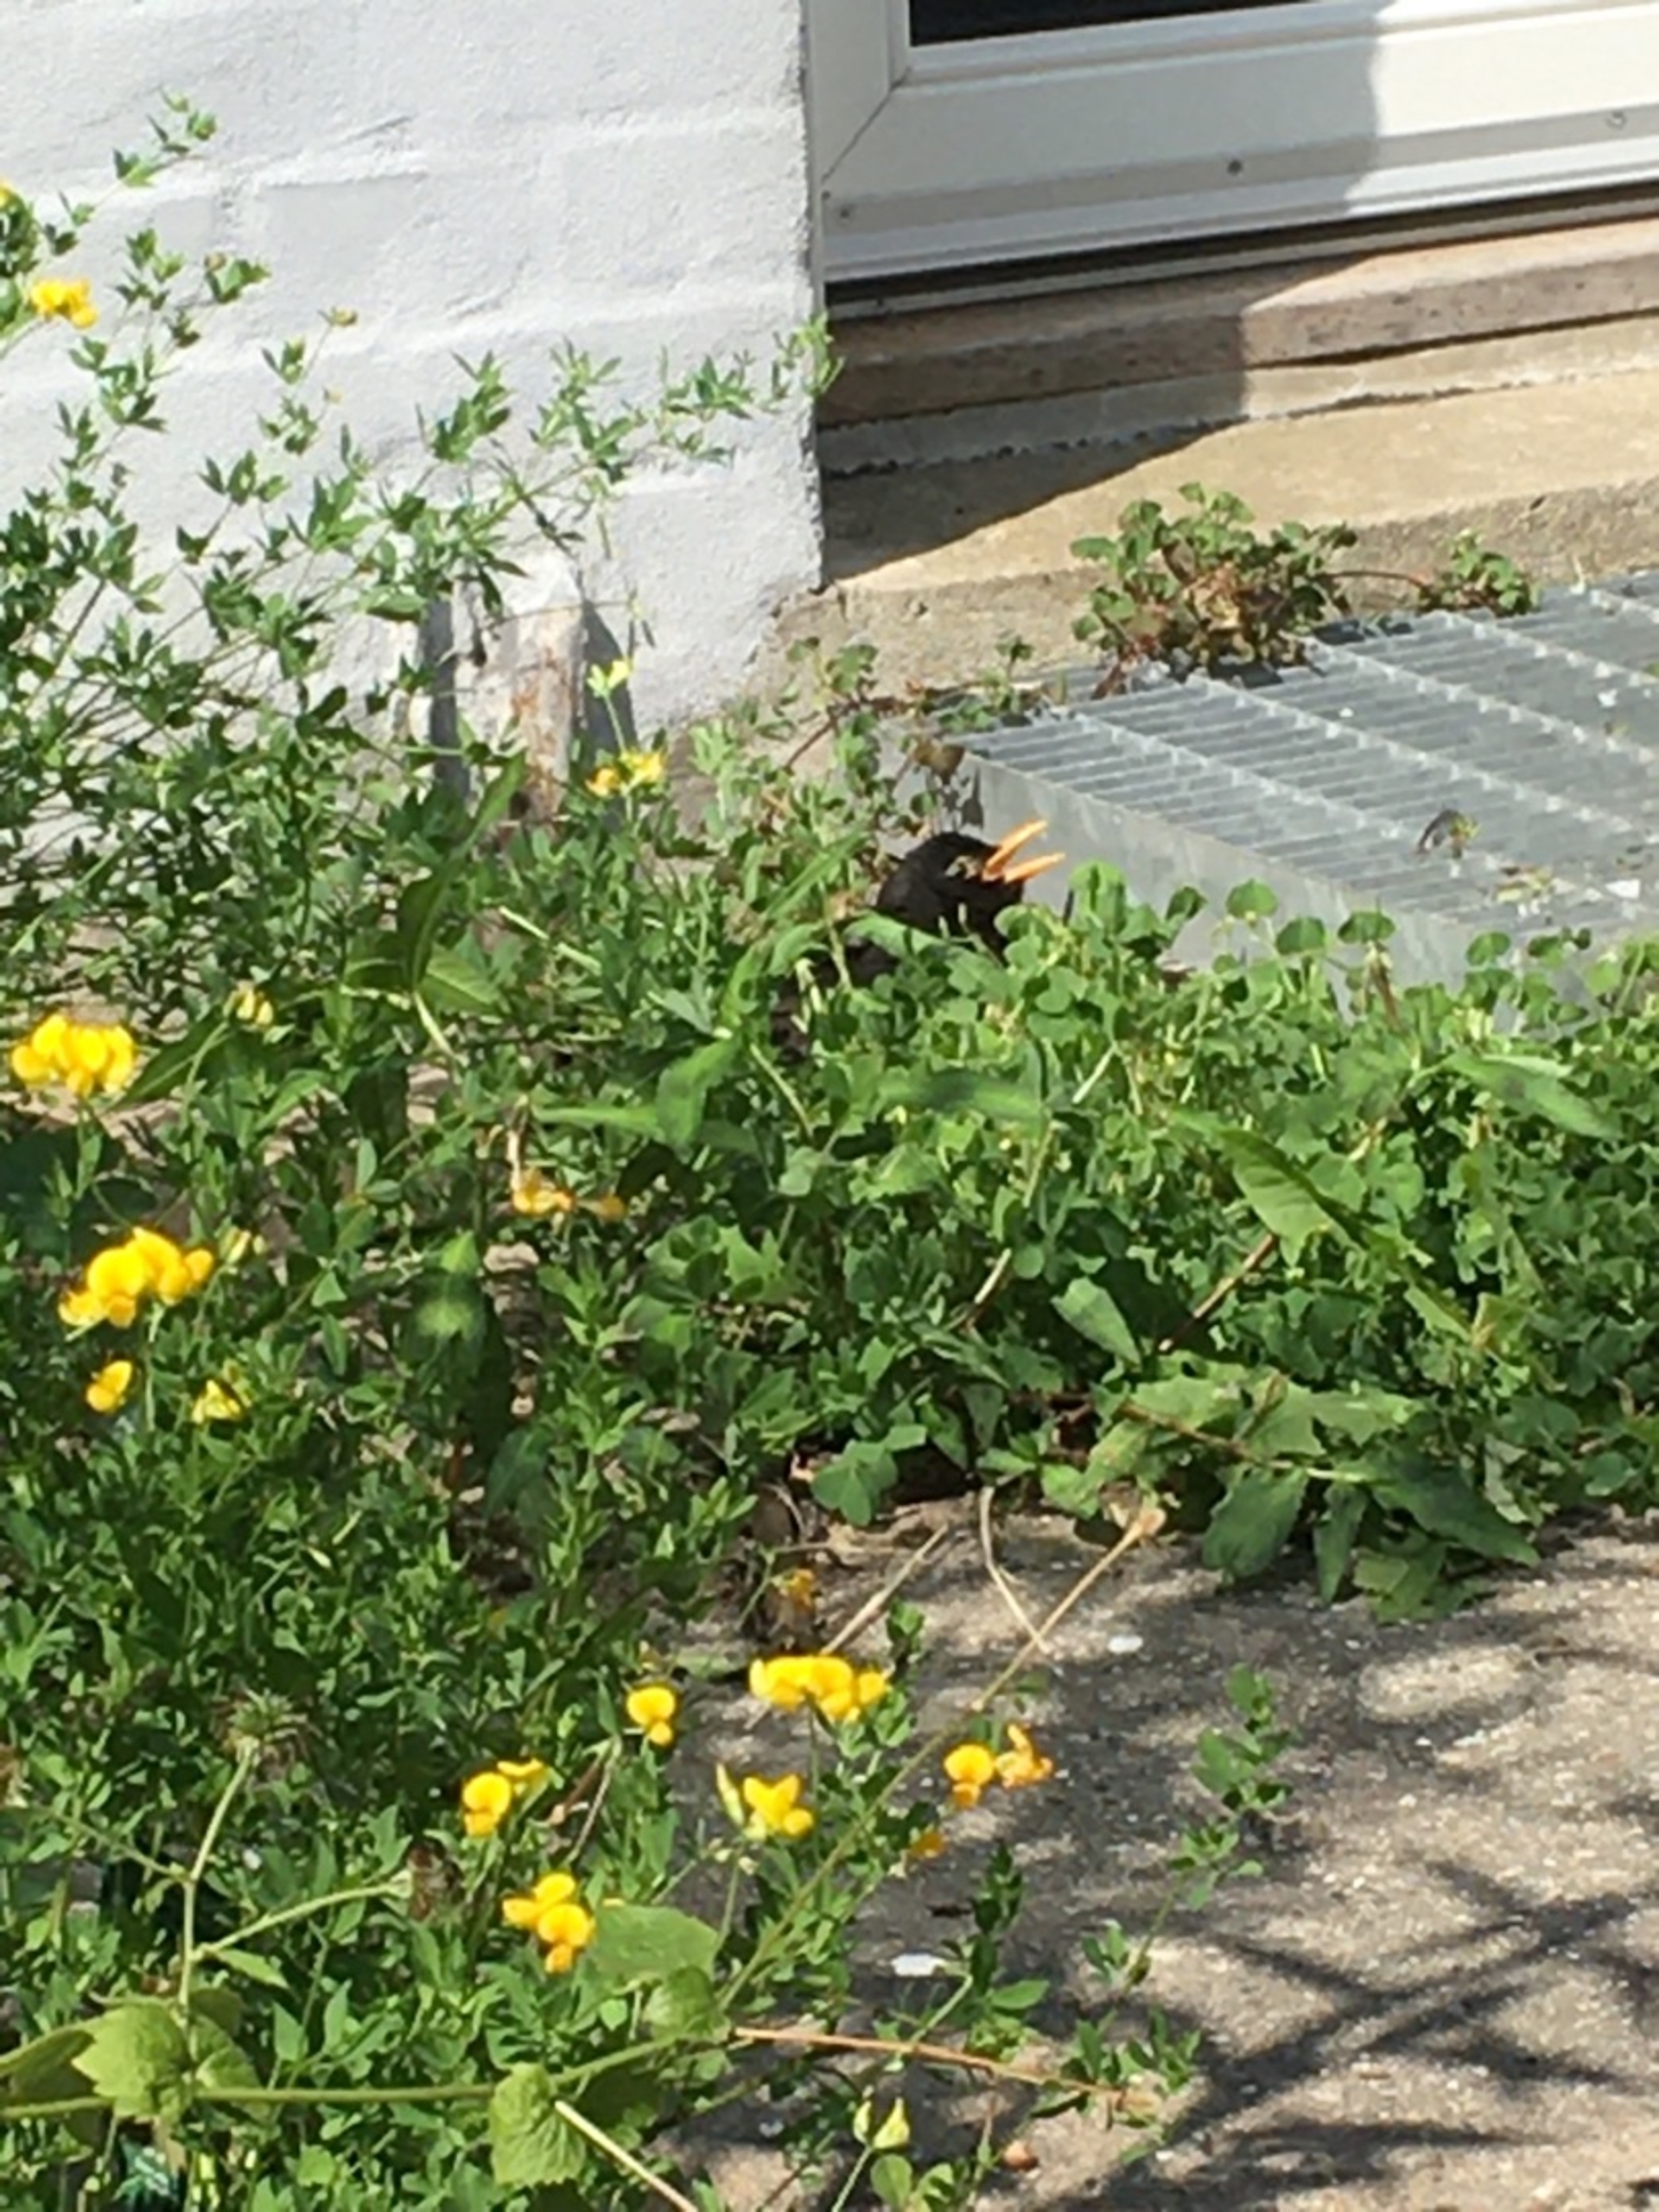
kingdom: Plantae
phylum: Tracheophyta
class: Magnoliopsida
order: Fabales
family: Fabaceae
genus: Lotus
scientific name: Lotus corniculatus
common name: Almindelig kællingetand
